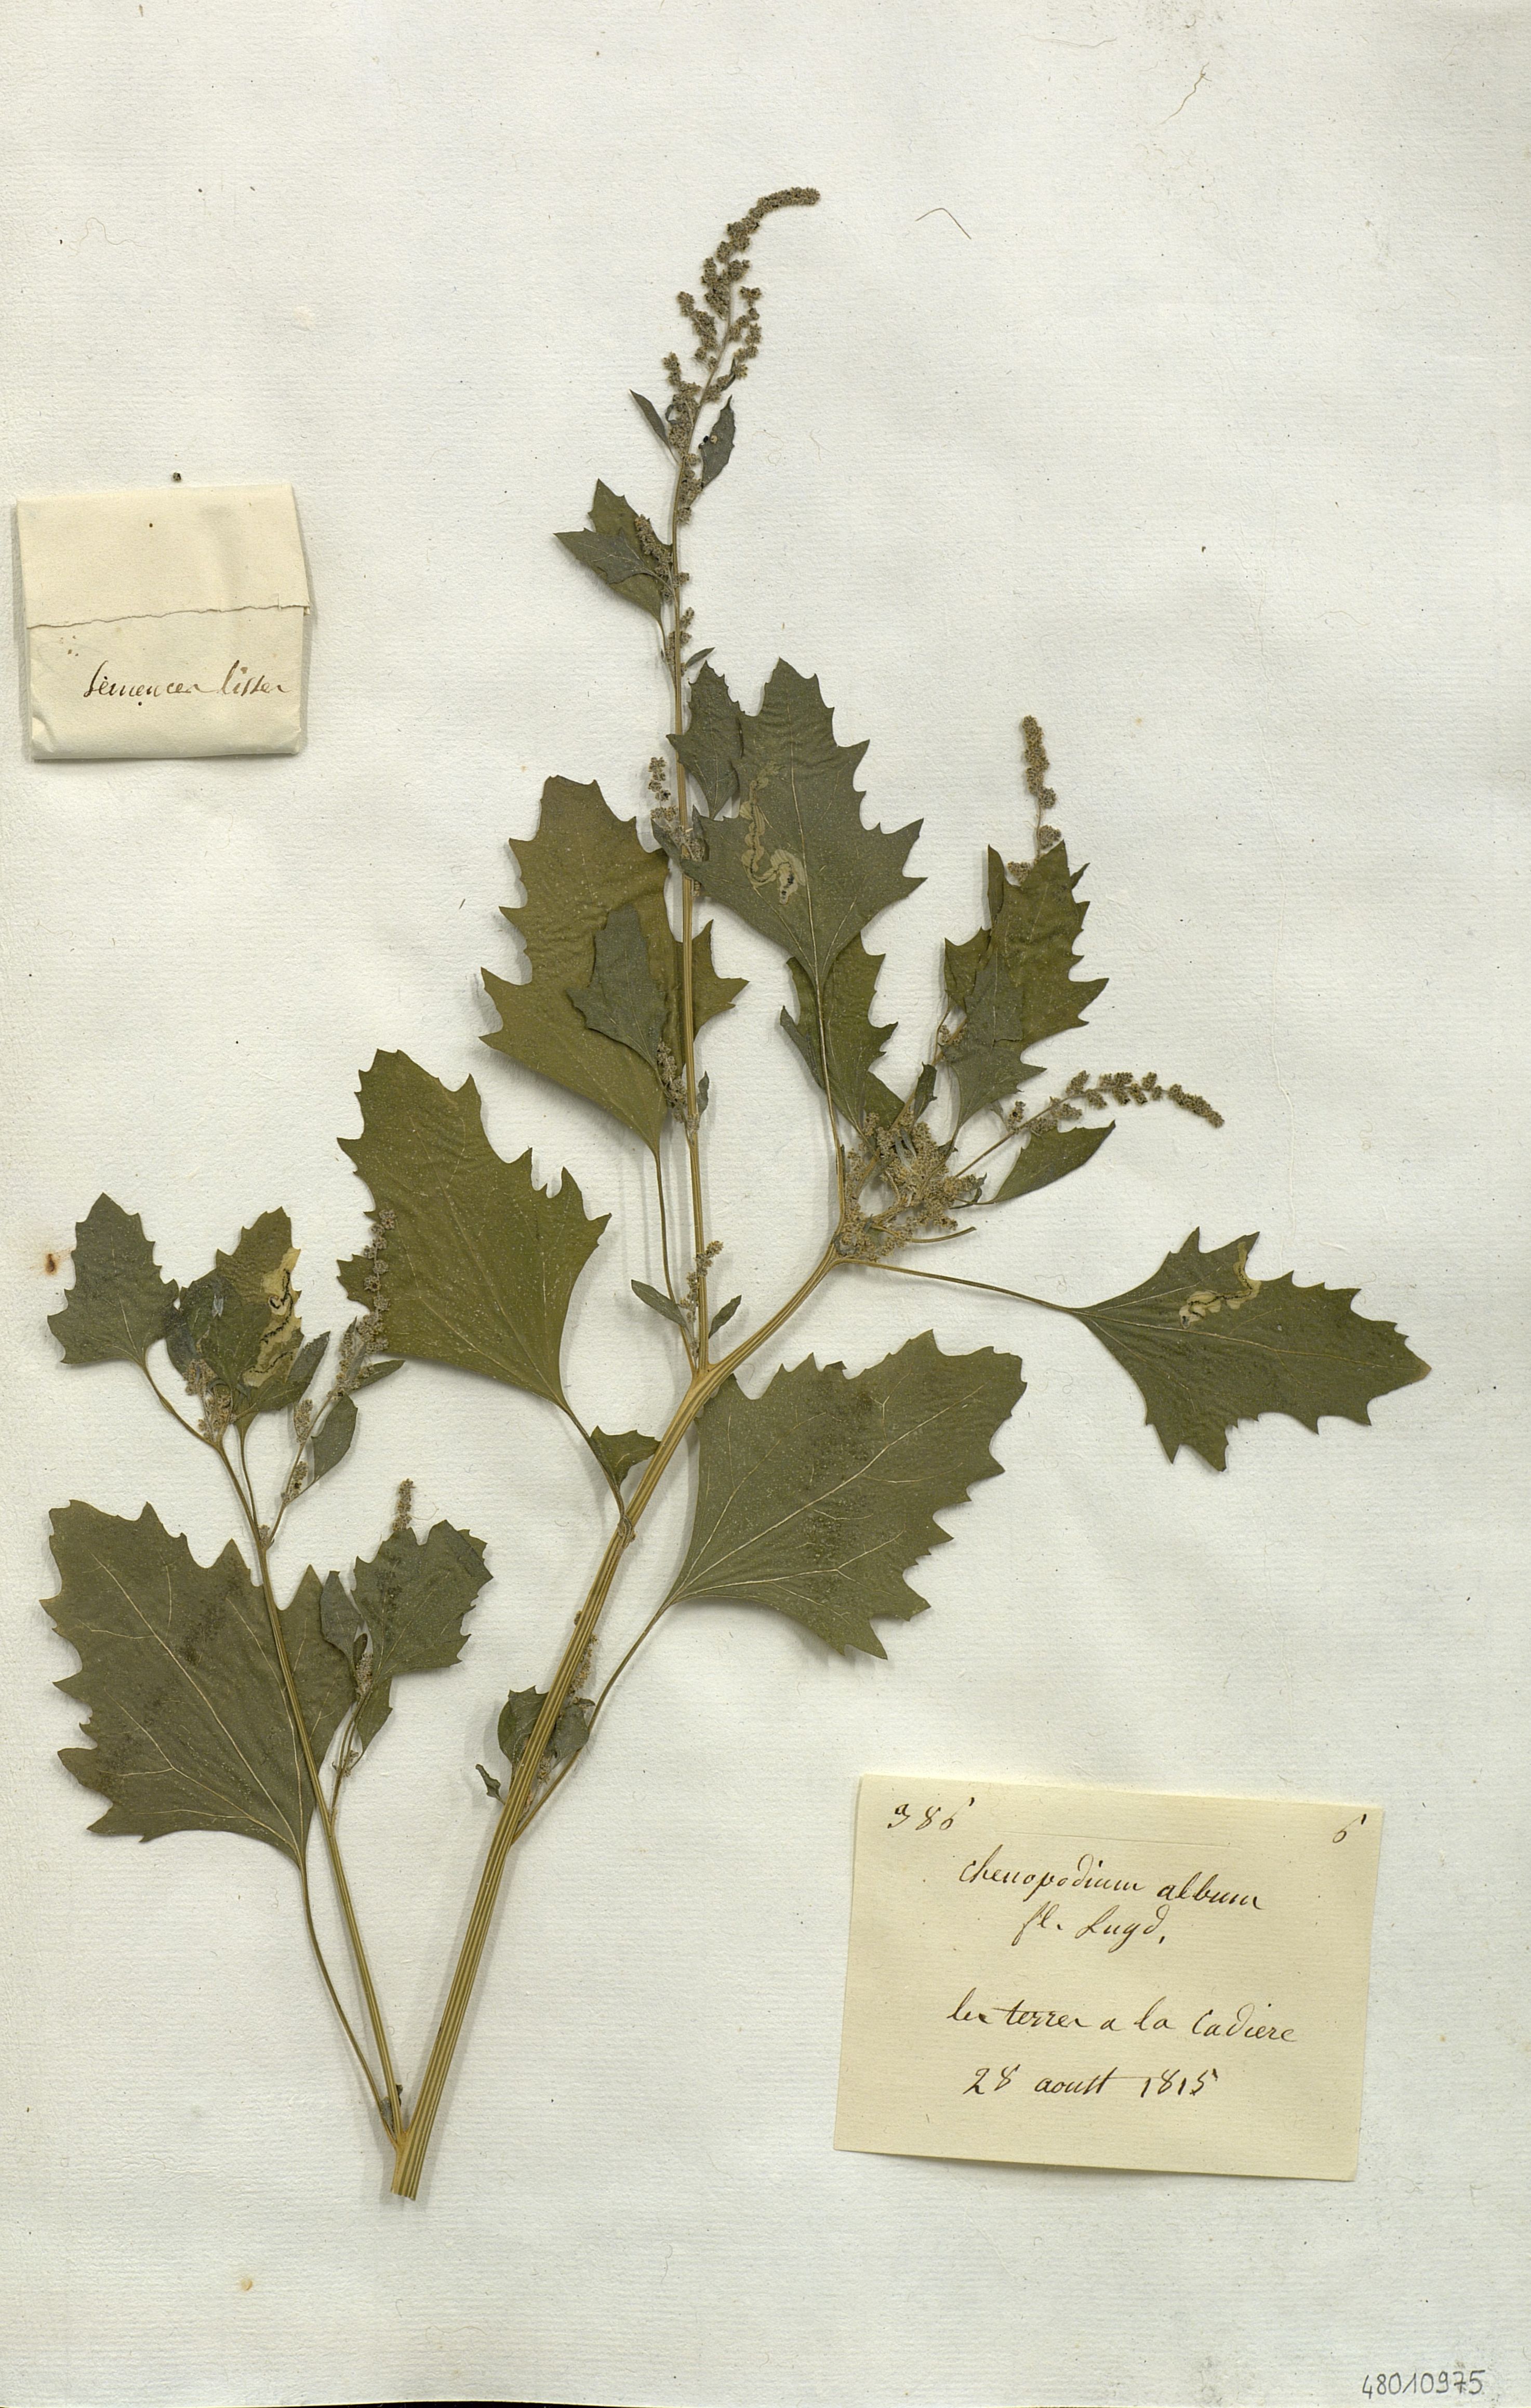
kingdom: Plantae
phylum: Tracheophyta
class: Magnoliopsida
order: Caryophyllales
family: Amaranthaceae
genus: Chenopodium
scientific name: Chenopodium album
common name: Fat-hen
